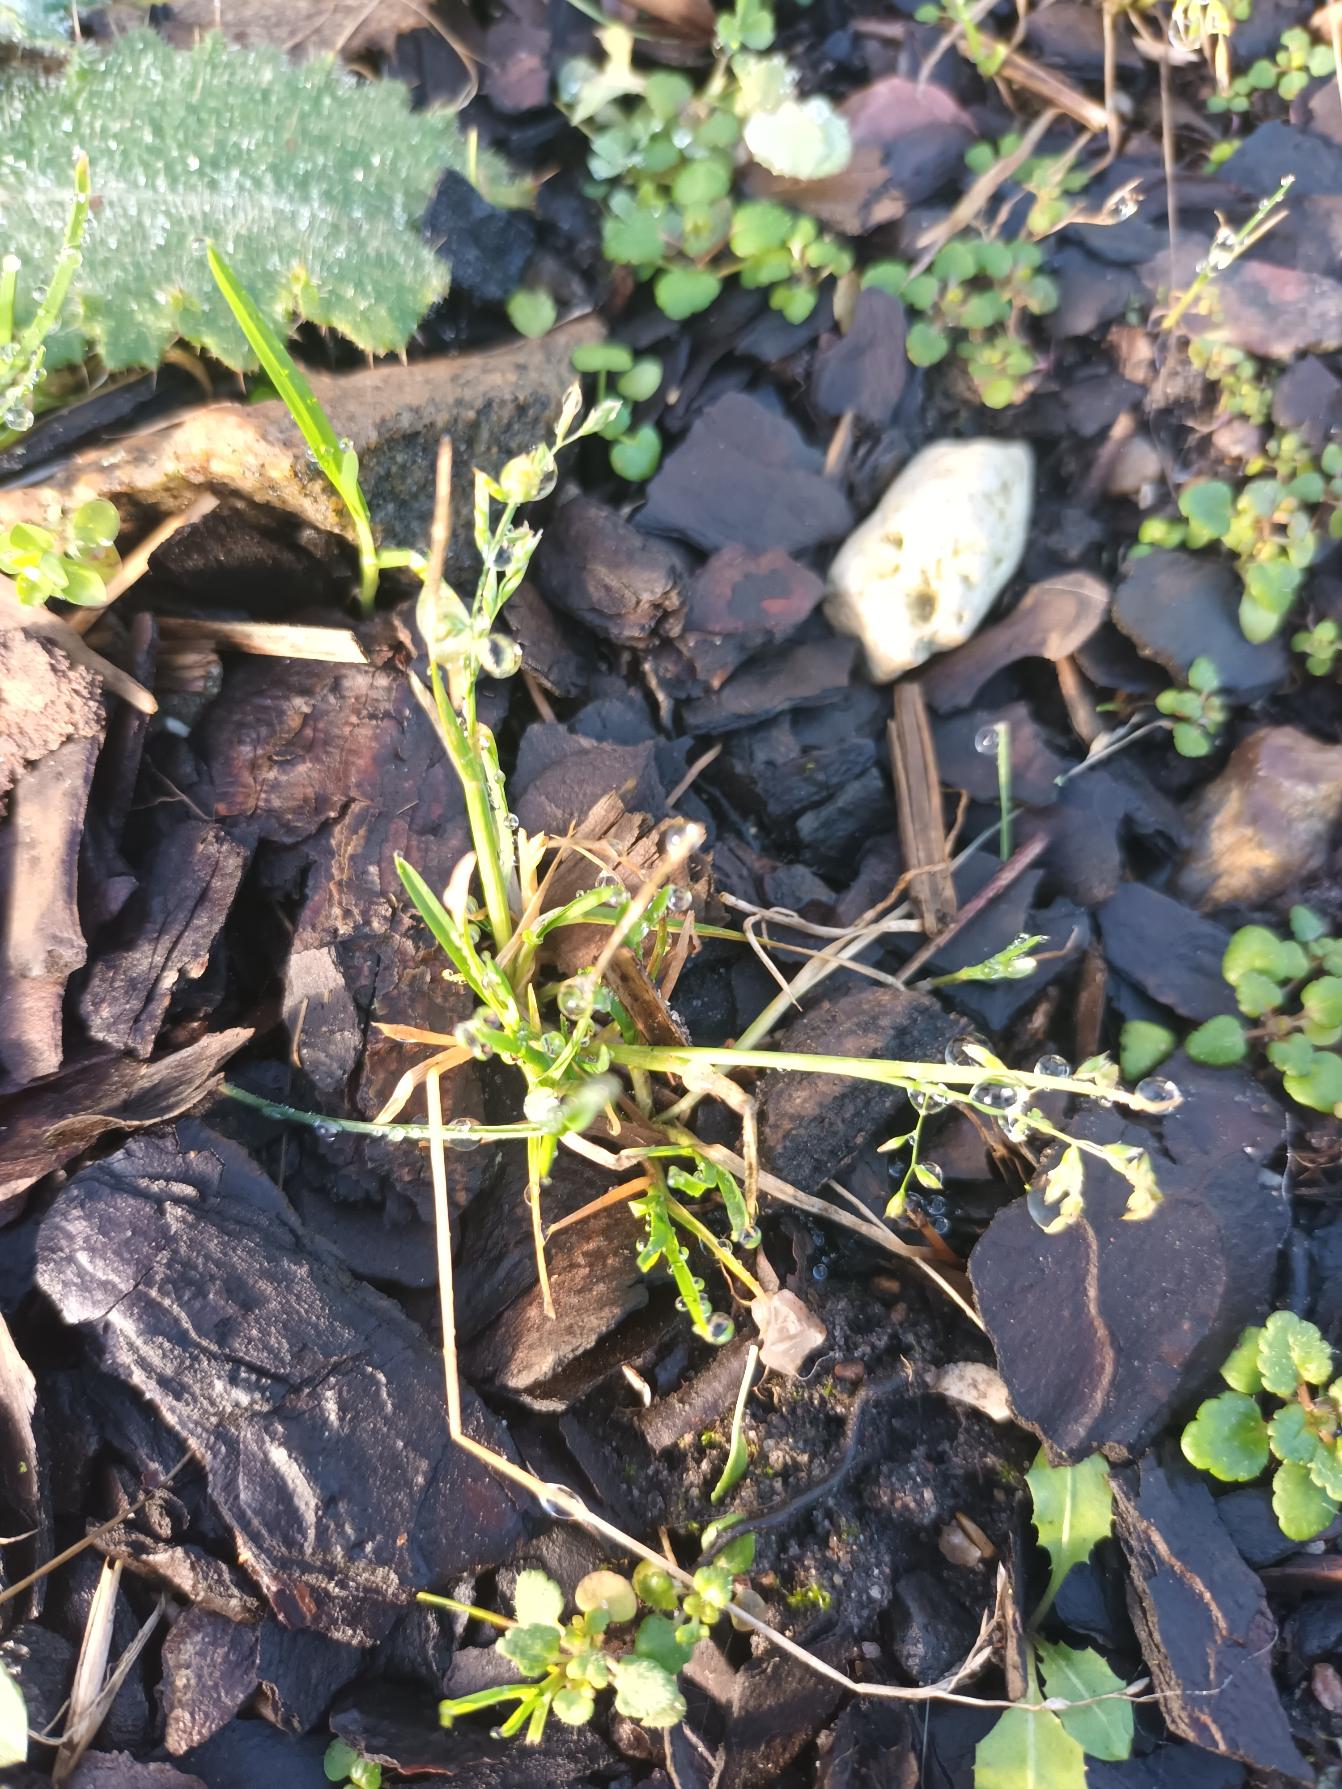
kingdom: Plantae
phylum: Tracheophyta
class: Liliopsida
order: Poales
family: Poaceae
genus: Poa
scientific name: Poa annua
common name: Enårig rapgræs
